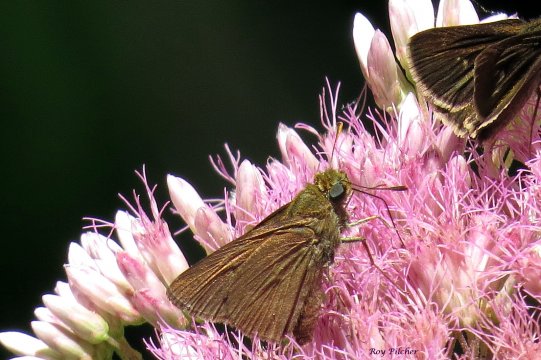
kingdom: Animalia
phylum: Arthropoda
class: Insecta
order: Lepidoptera
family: Hesperiidae
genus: Euphyes
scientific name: Euphyes vestris
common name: Dun Skipper
